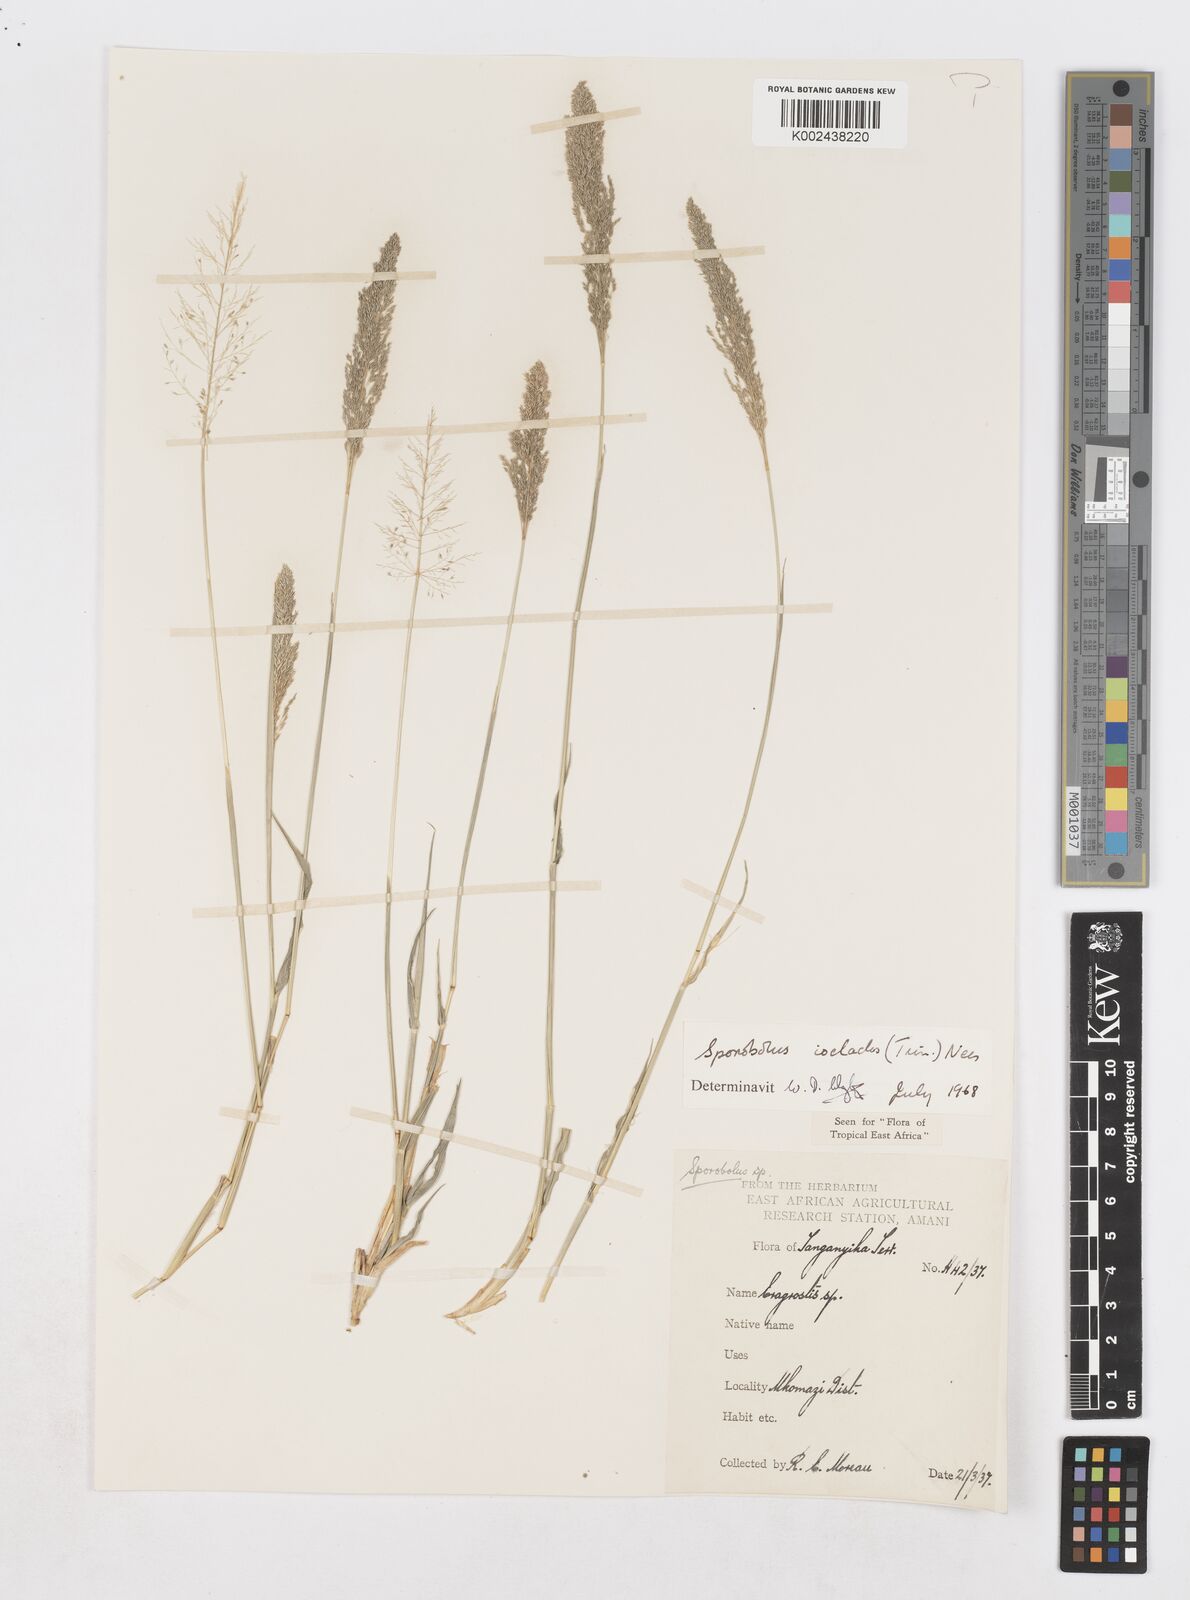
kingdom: Plantae
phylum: Tracheophyta
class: Liliopsida
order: Poales
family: Poaceae
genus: Sporobolus
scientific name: Sporobolus ioclados
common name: Pan dropseed
